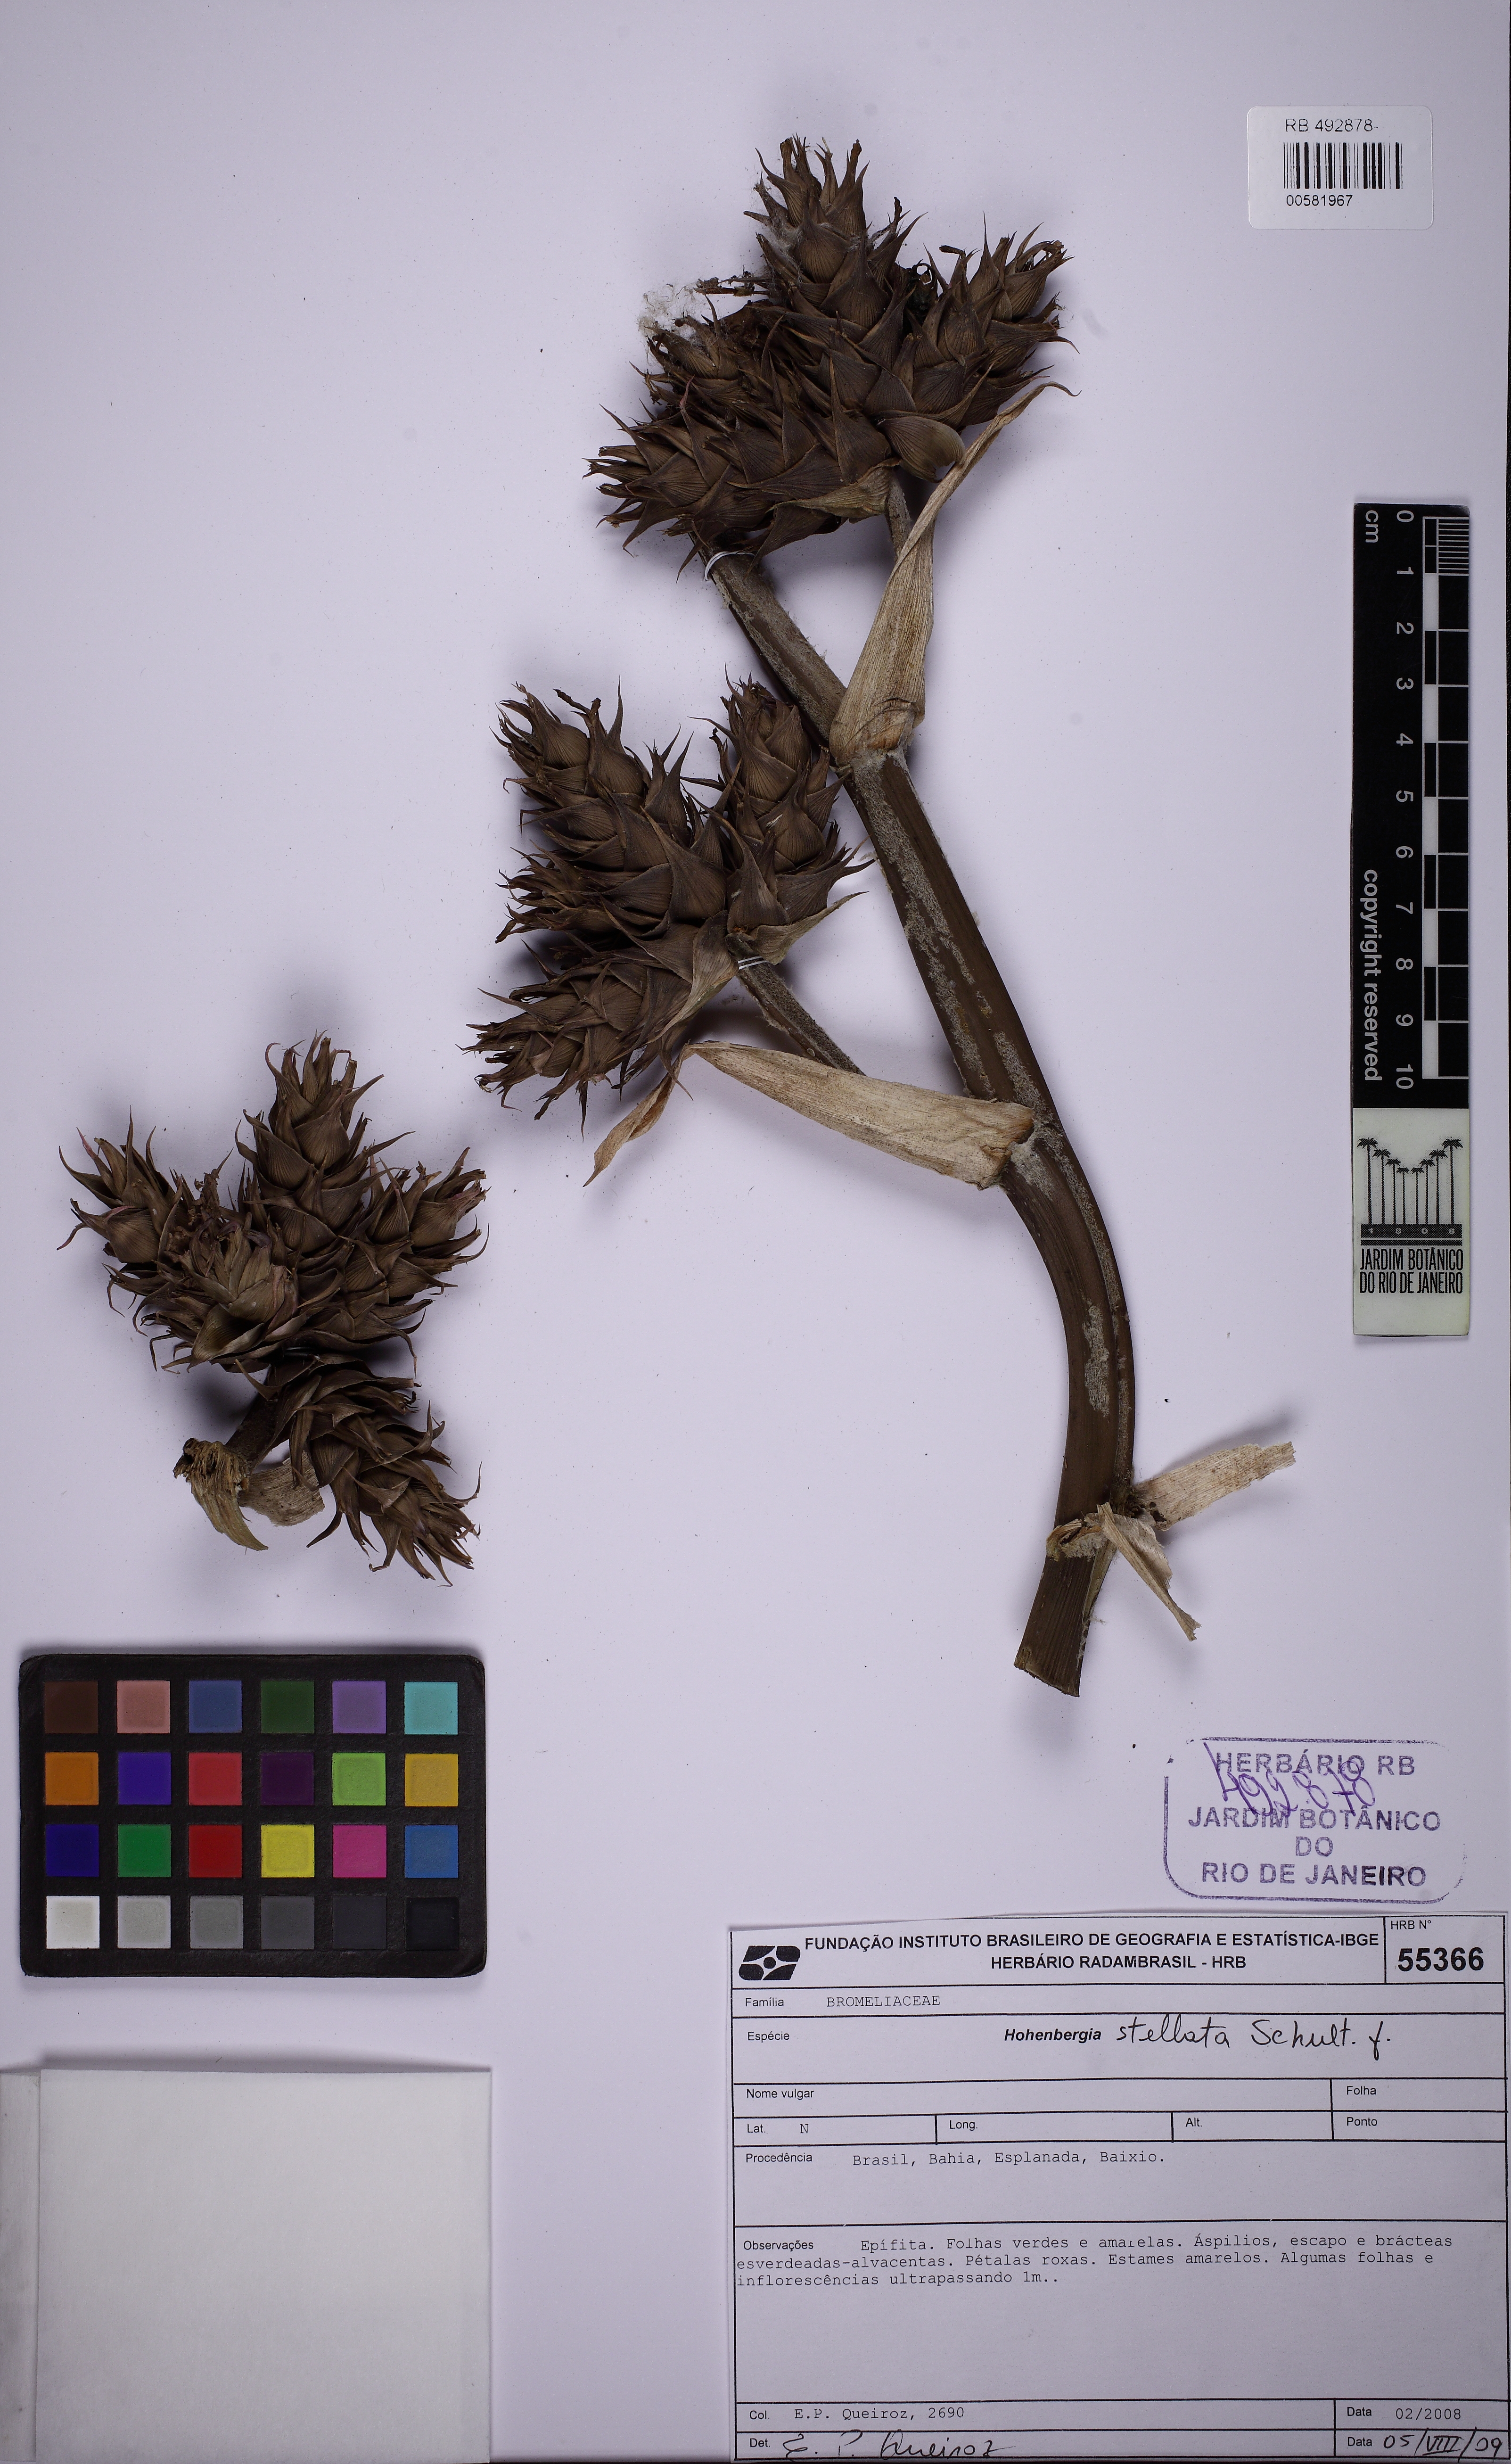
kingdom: Plantae
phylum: Tracheophyta
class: Liliopsida
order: Poales
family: Bromeliaceae
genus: Hohenbergia
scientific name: Hohenbergia stellata
